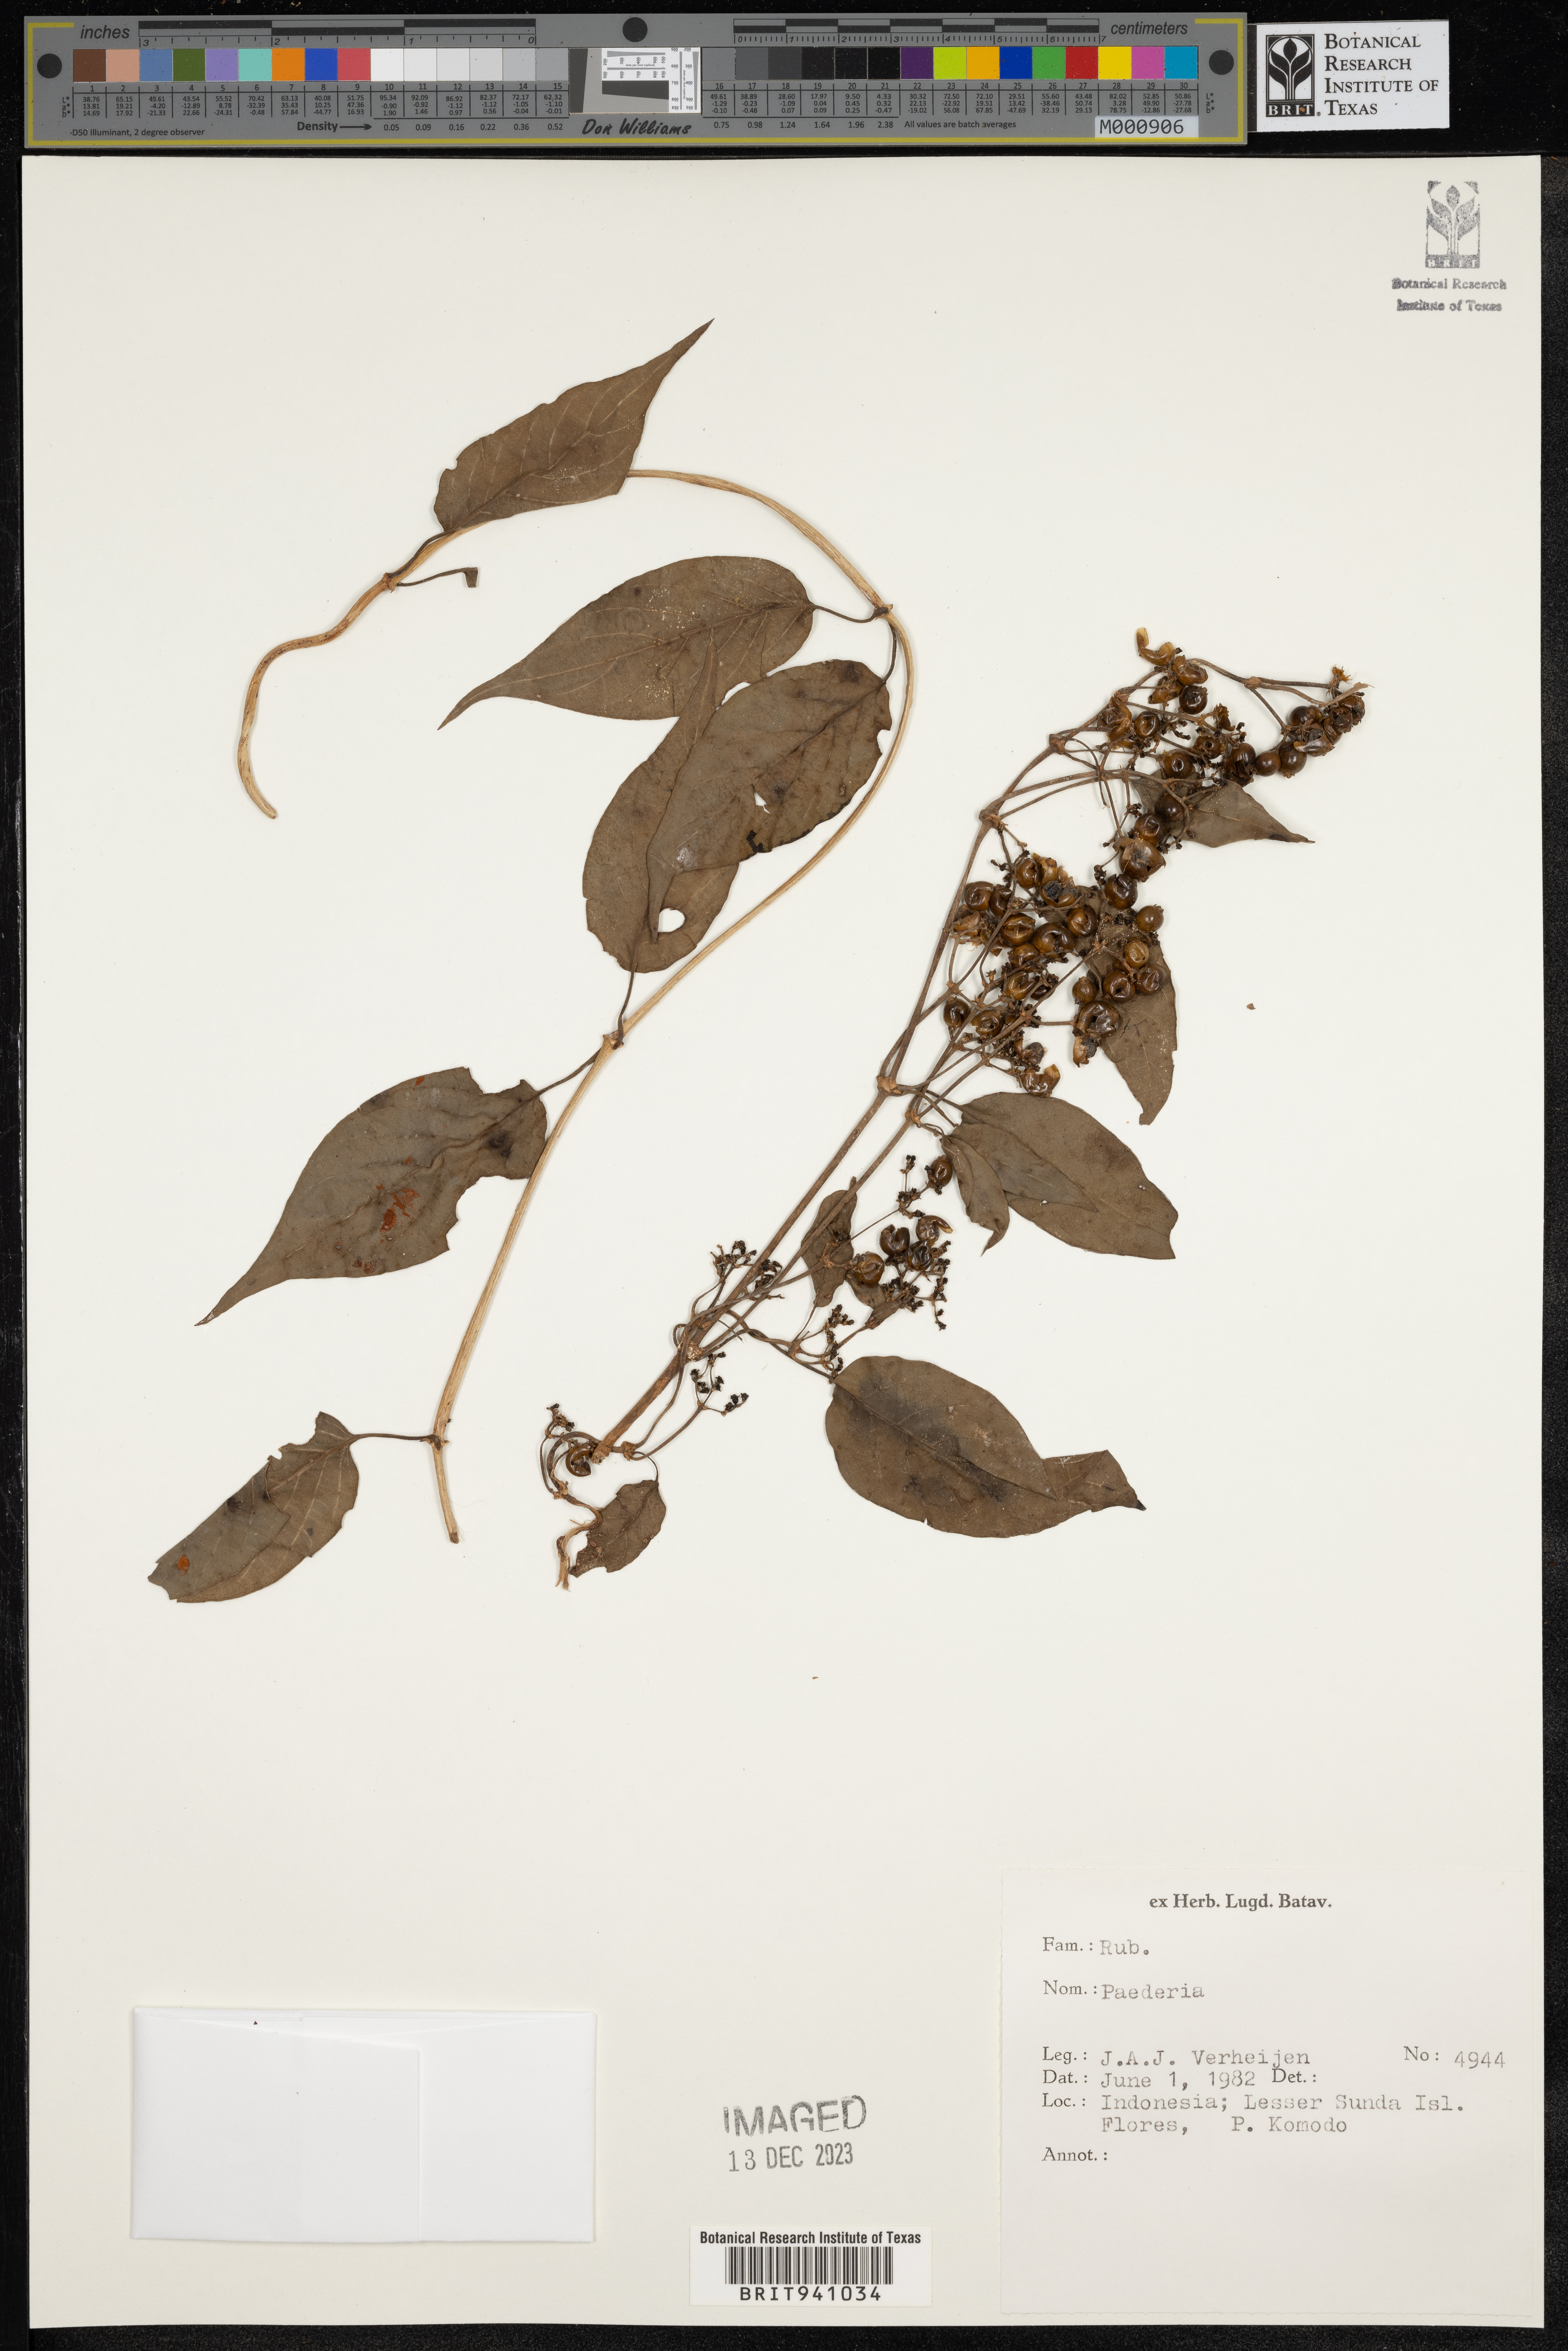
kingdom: Plantae
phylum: Tracheophyta
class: Magnoliopsida
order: Gentianales
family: Rubiaceae
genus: Paederia
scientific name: Paederia
